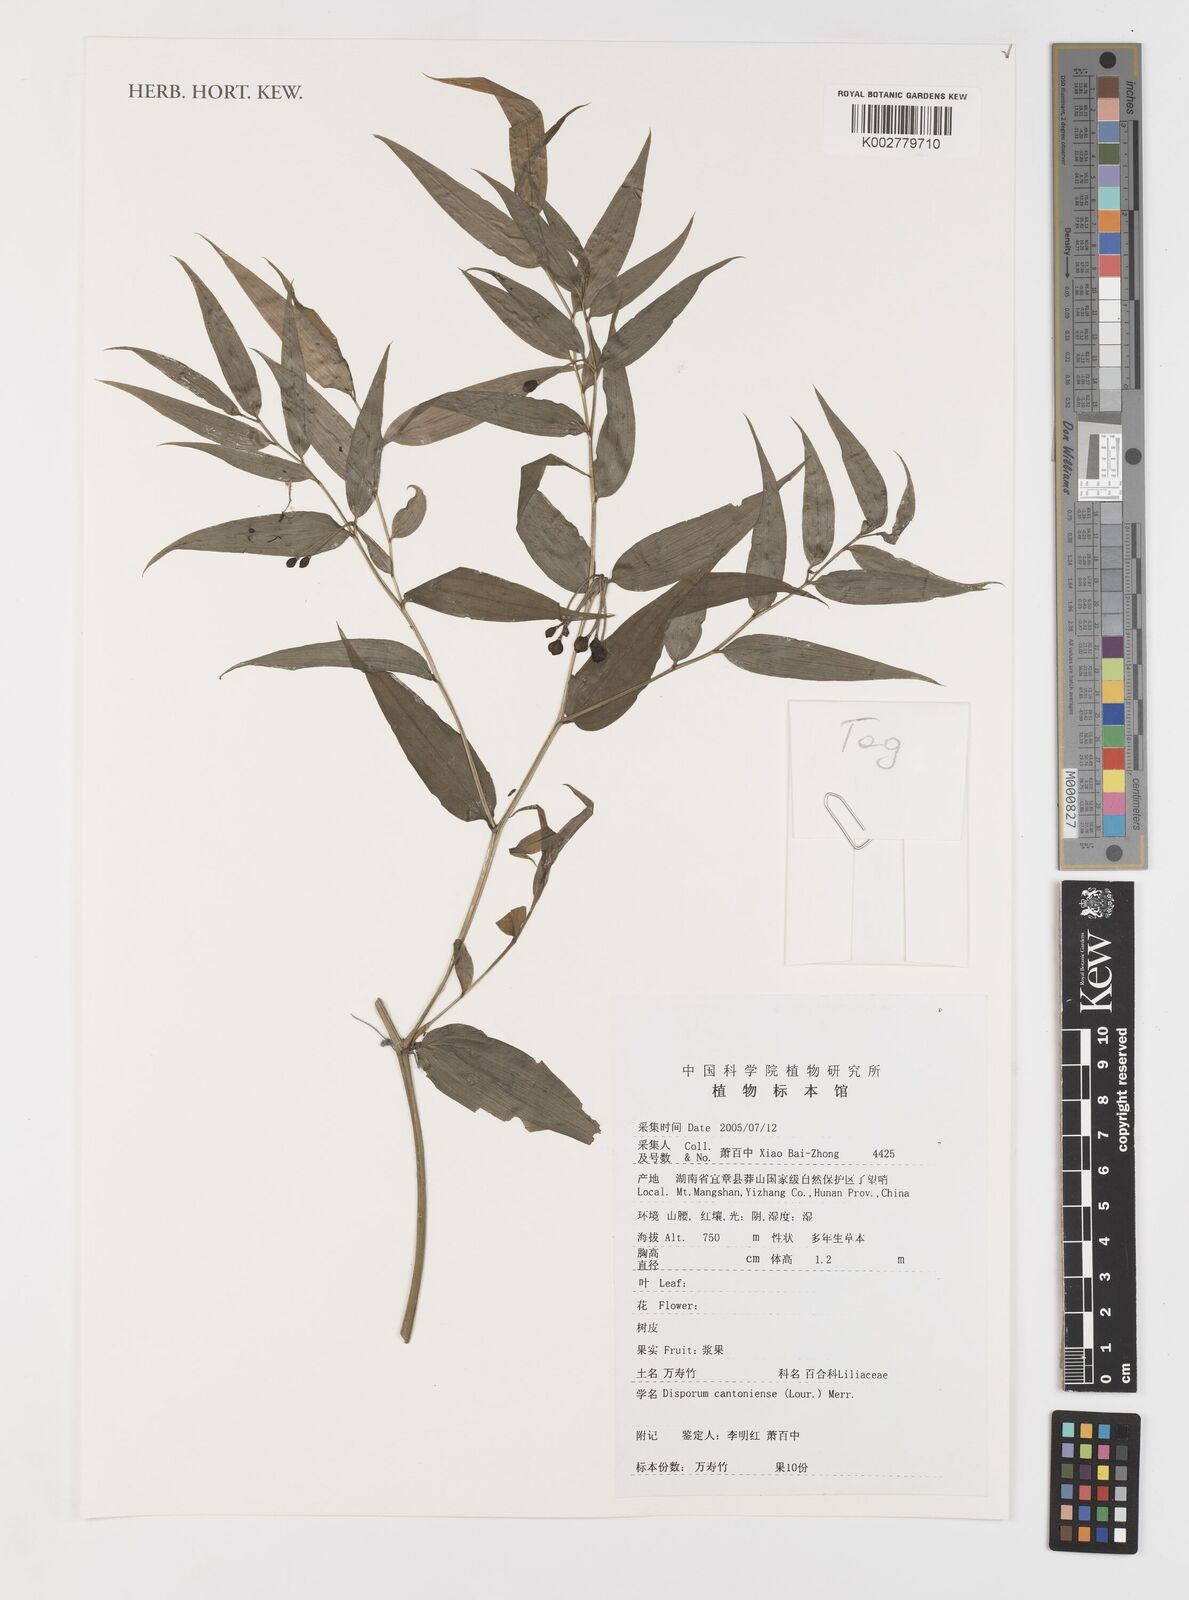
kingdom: Plantae
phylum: Tracheophyta
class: Liliopsida
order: Liliales
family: Colchicaceae
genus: Disporum
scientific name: Disporum cantoniense
